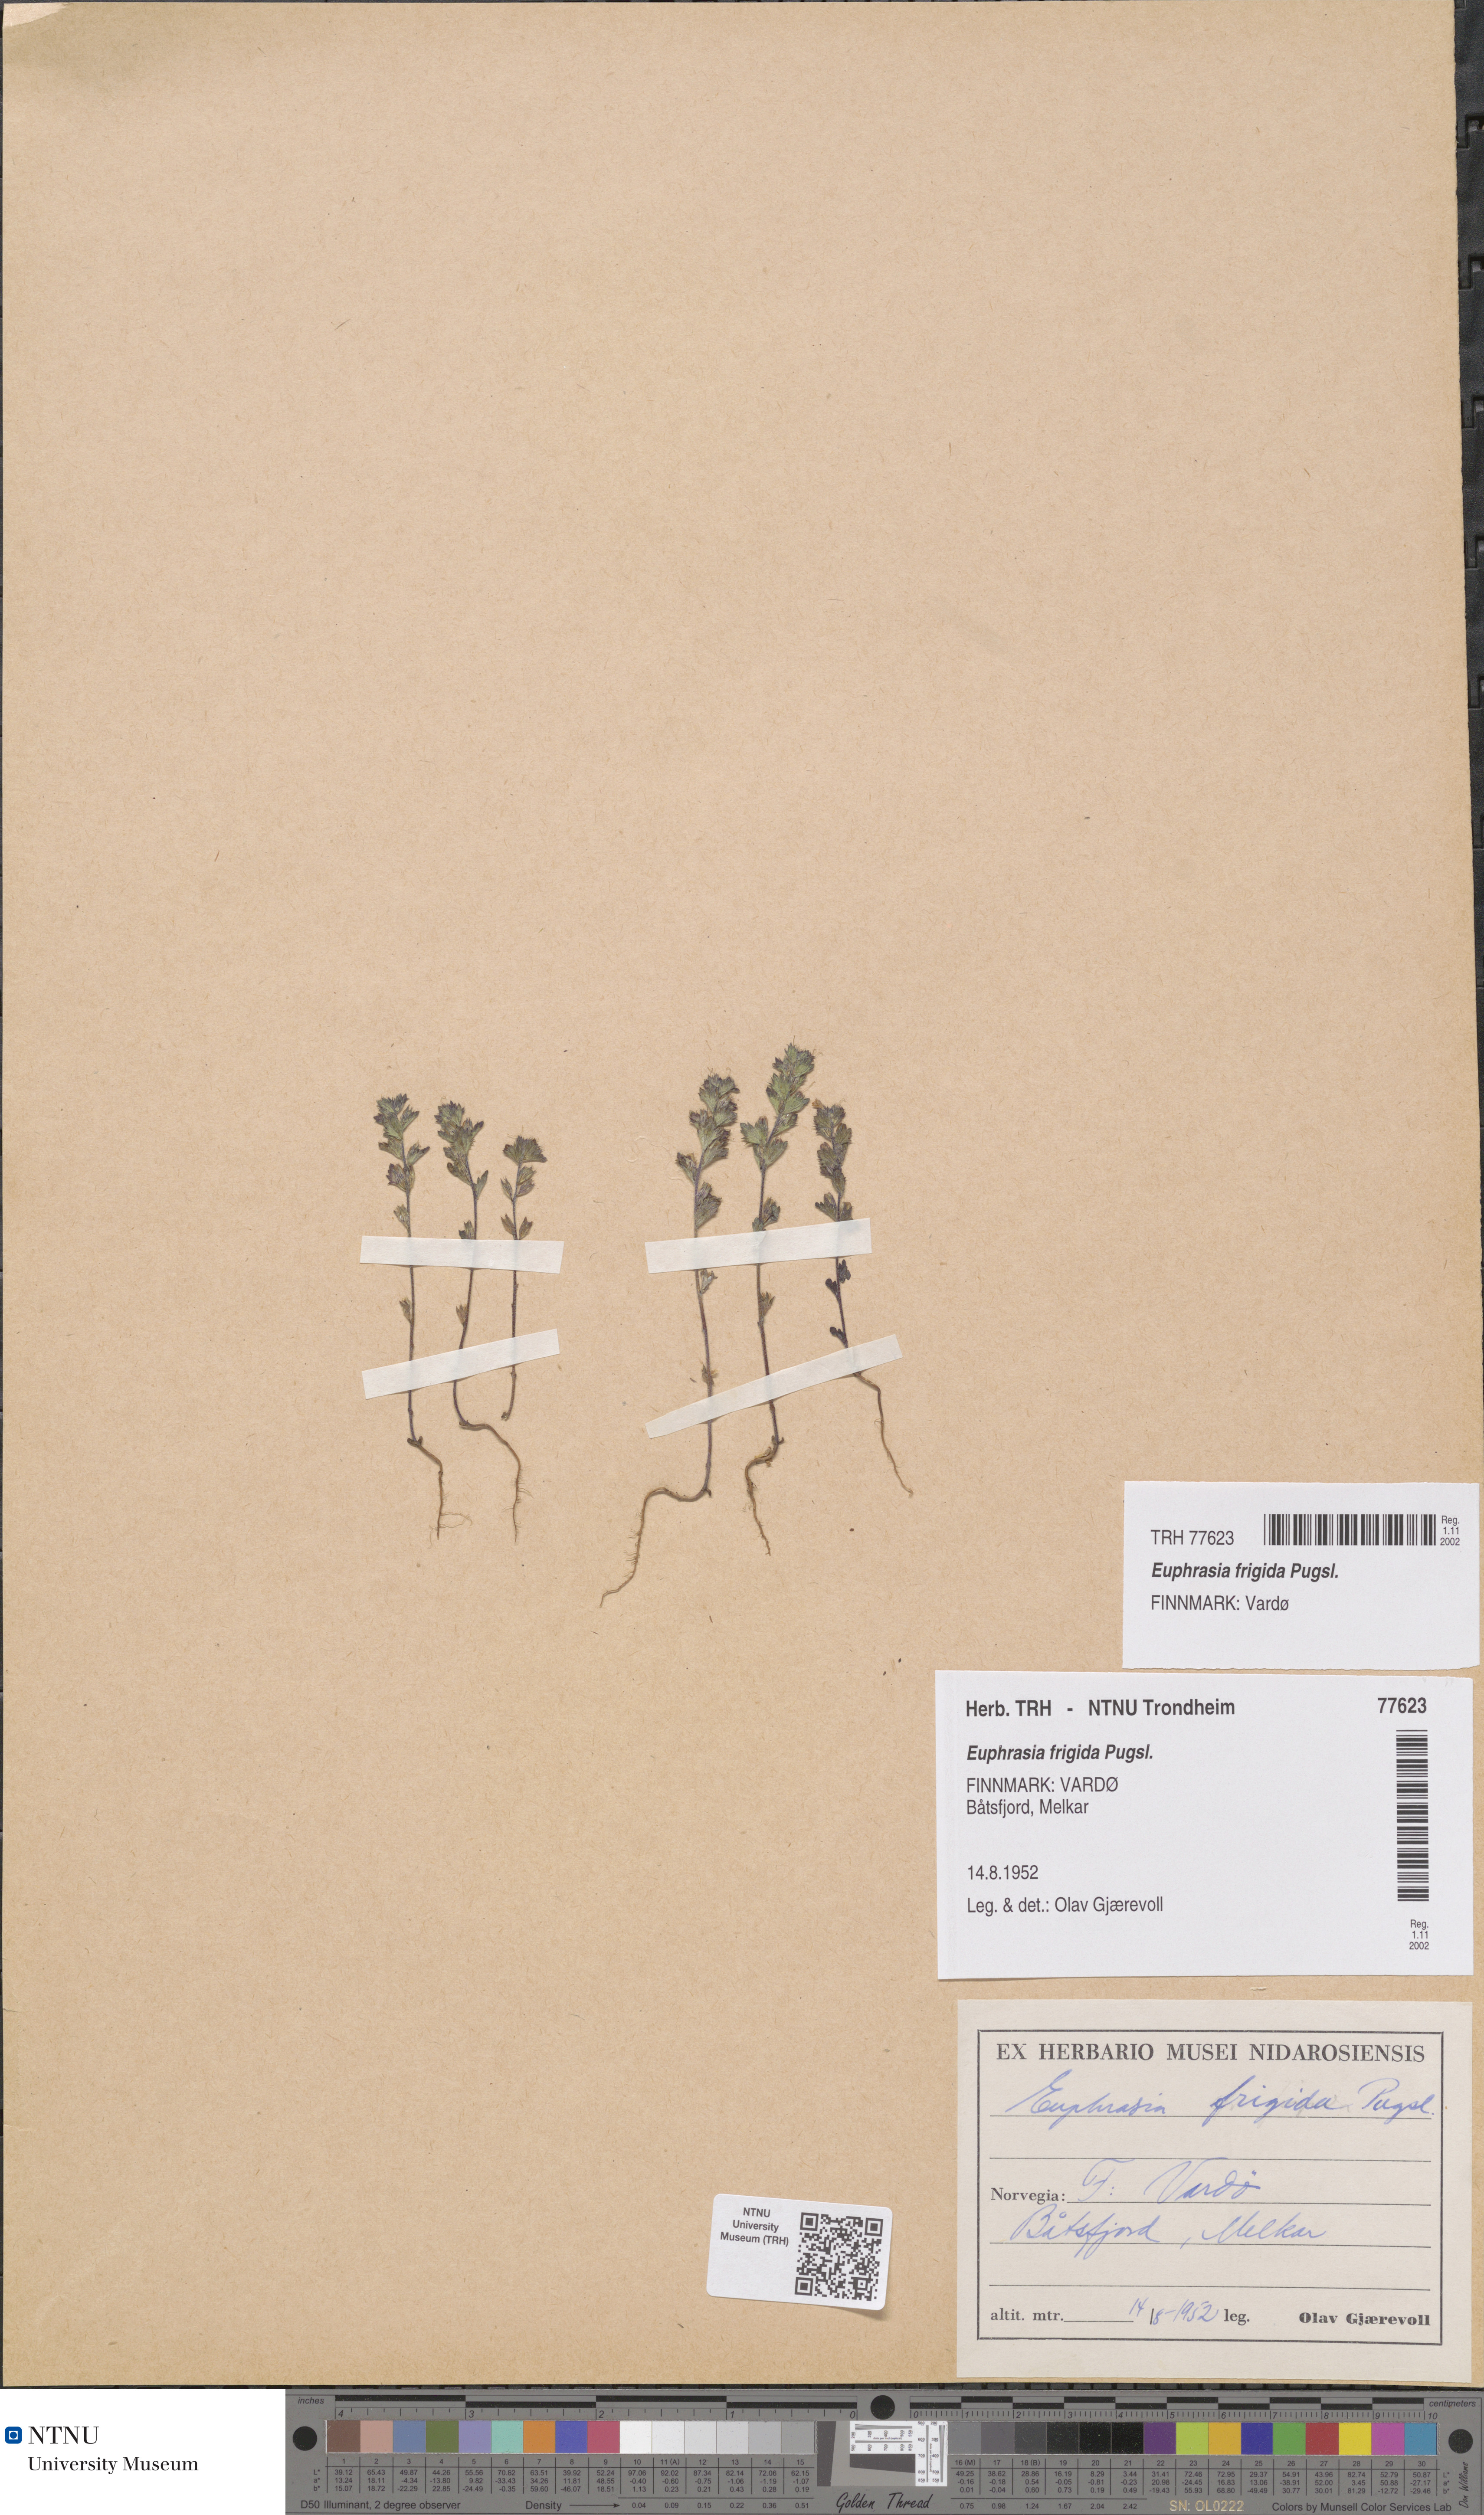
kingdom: Plantae
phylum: Tracheophyta
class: Magnoliopsida
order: Lamiales
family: Orobanchaceae
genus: Euphrasia
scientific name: Euphrasia wettsteinii
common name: Wettstein's eyebright
